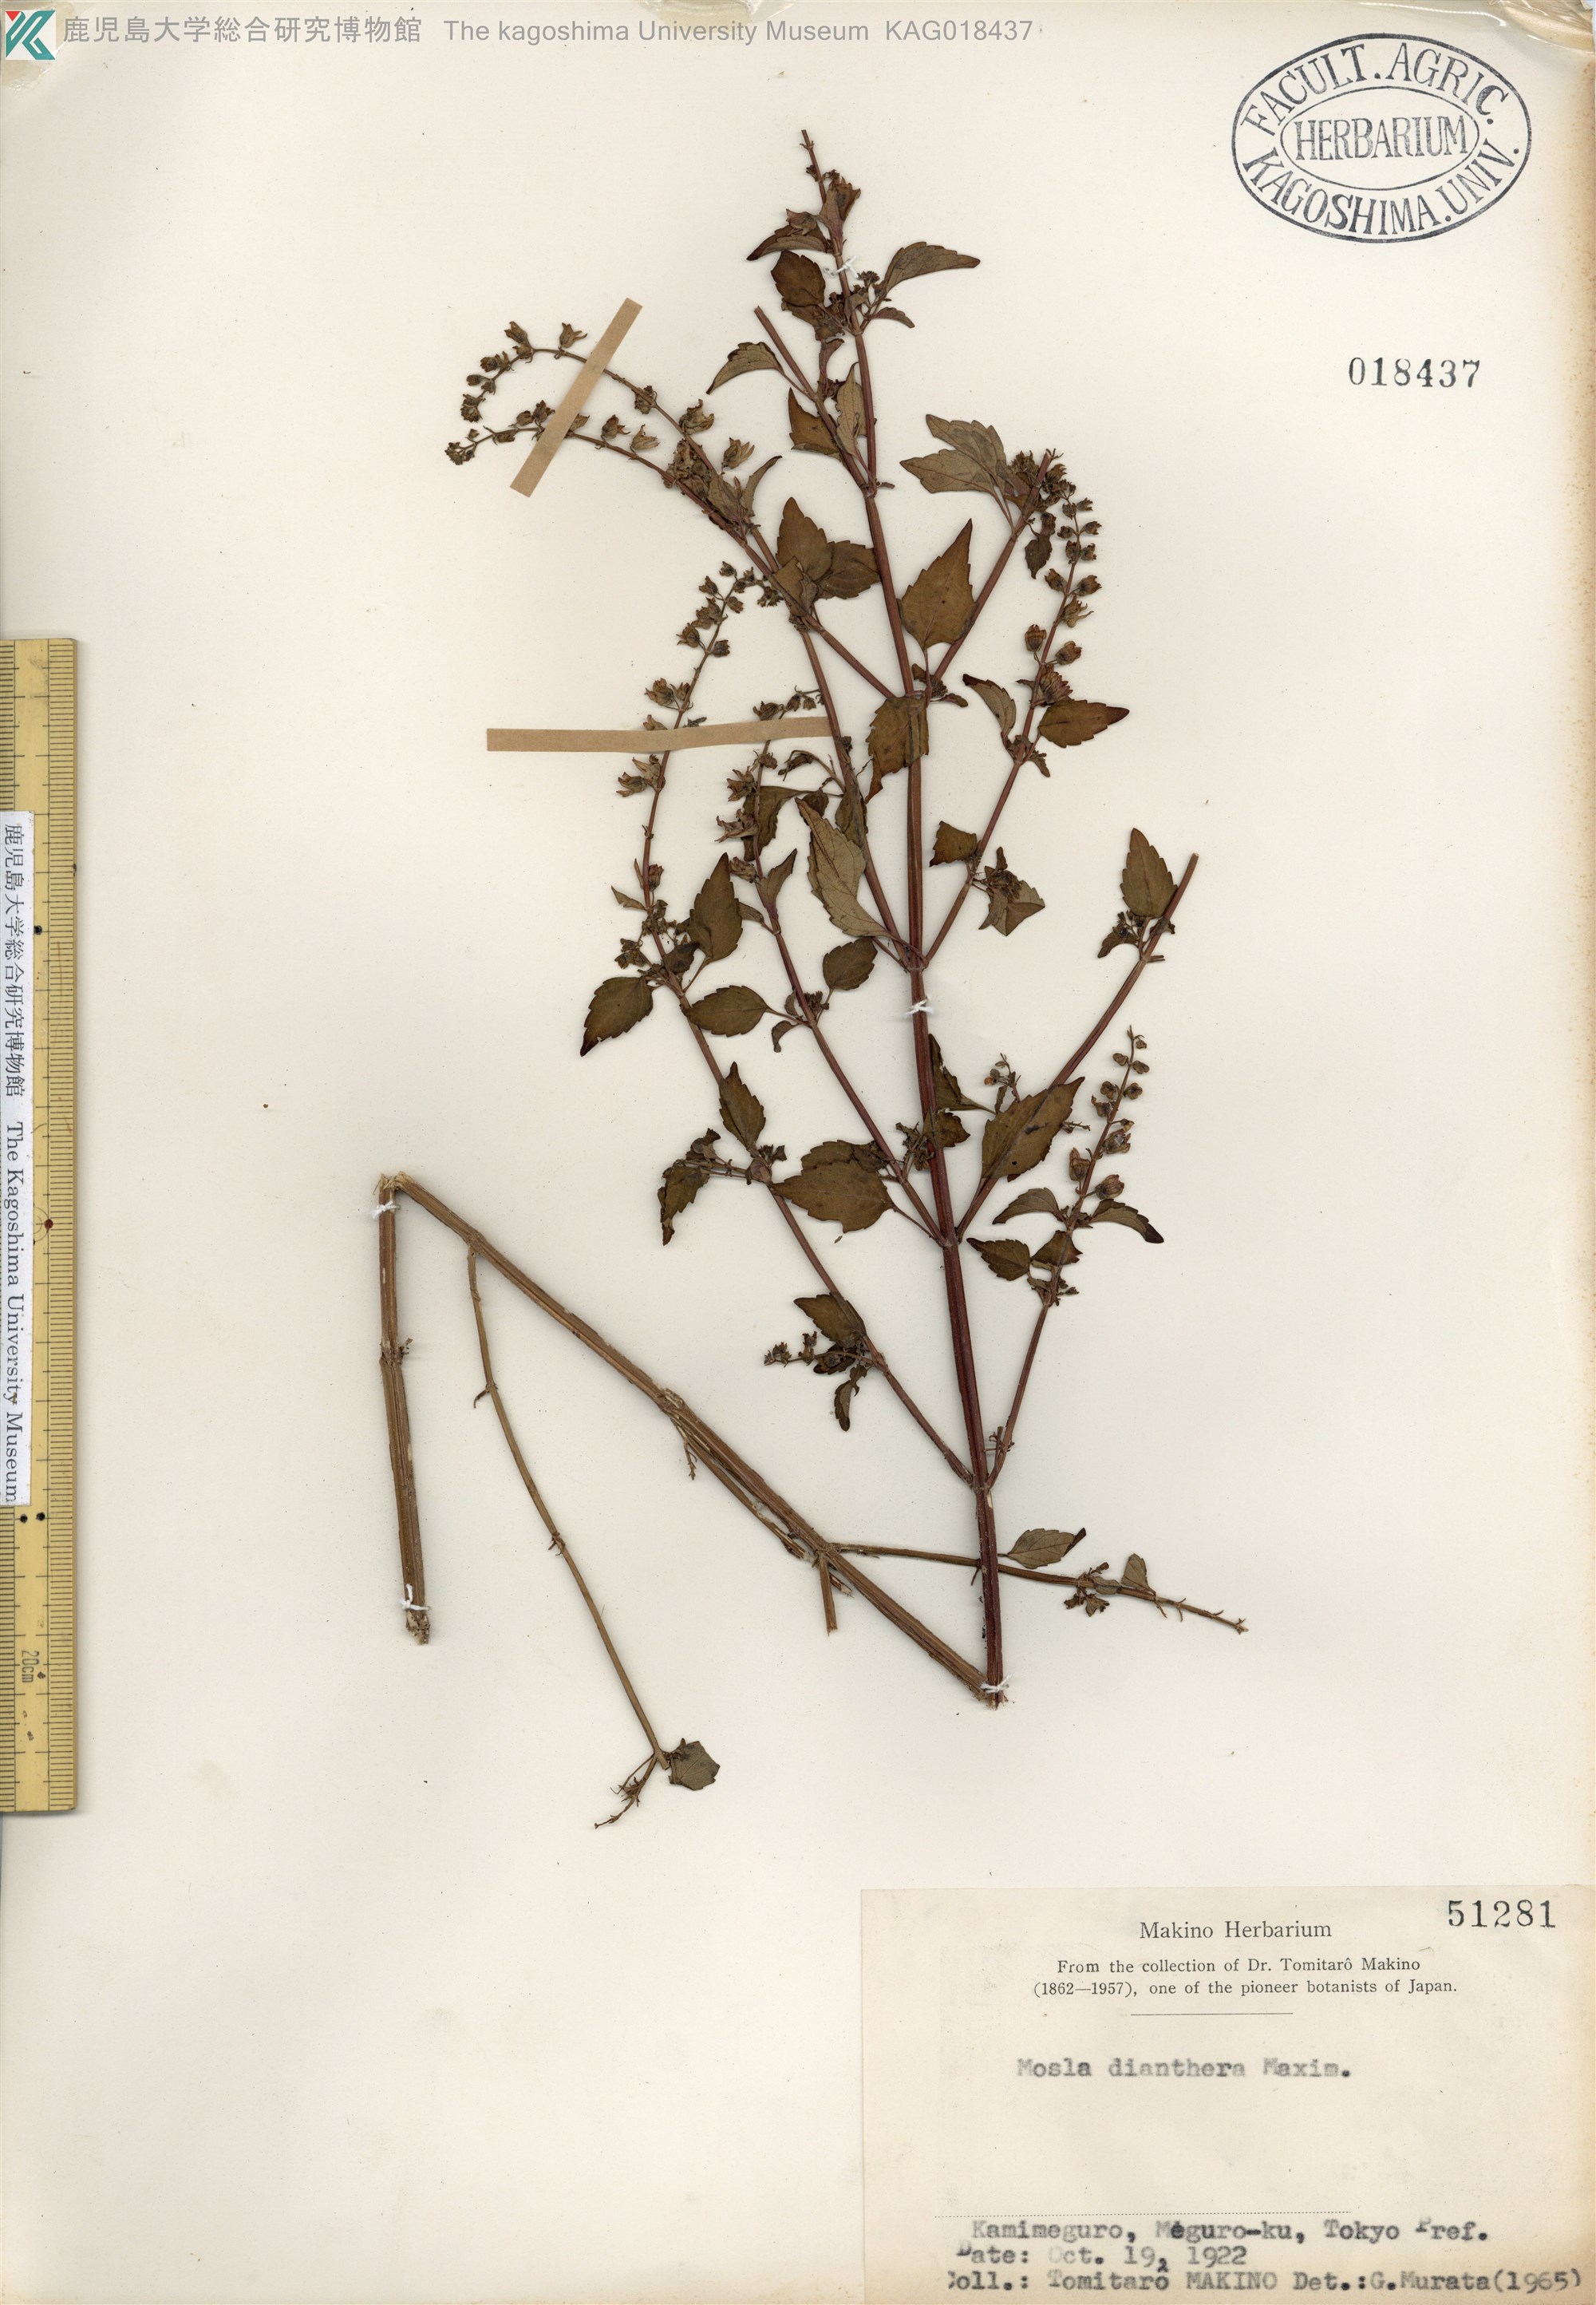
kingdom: Plantae
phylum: Tracheophyta
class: Magnoliopsida
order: Lamiales
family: Lamiaceae
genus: Mosla
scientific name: Mosla dianthera
